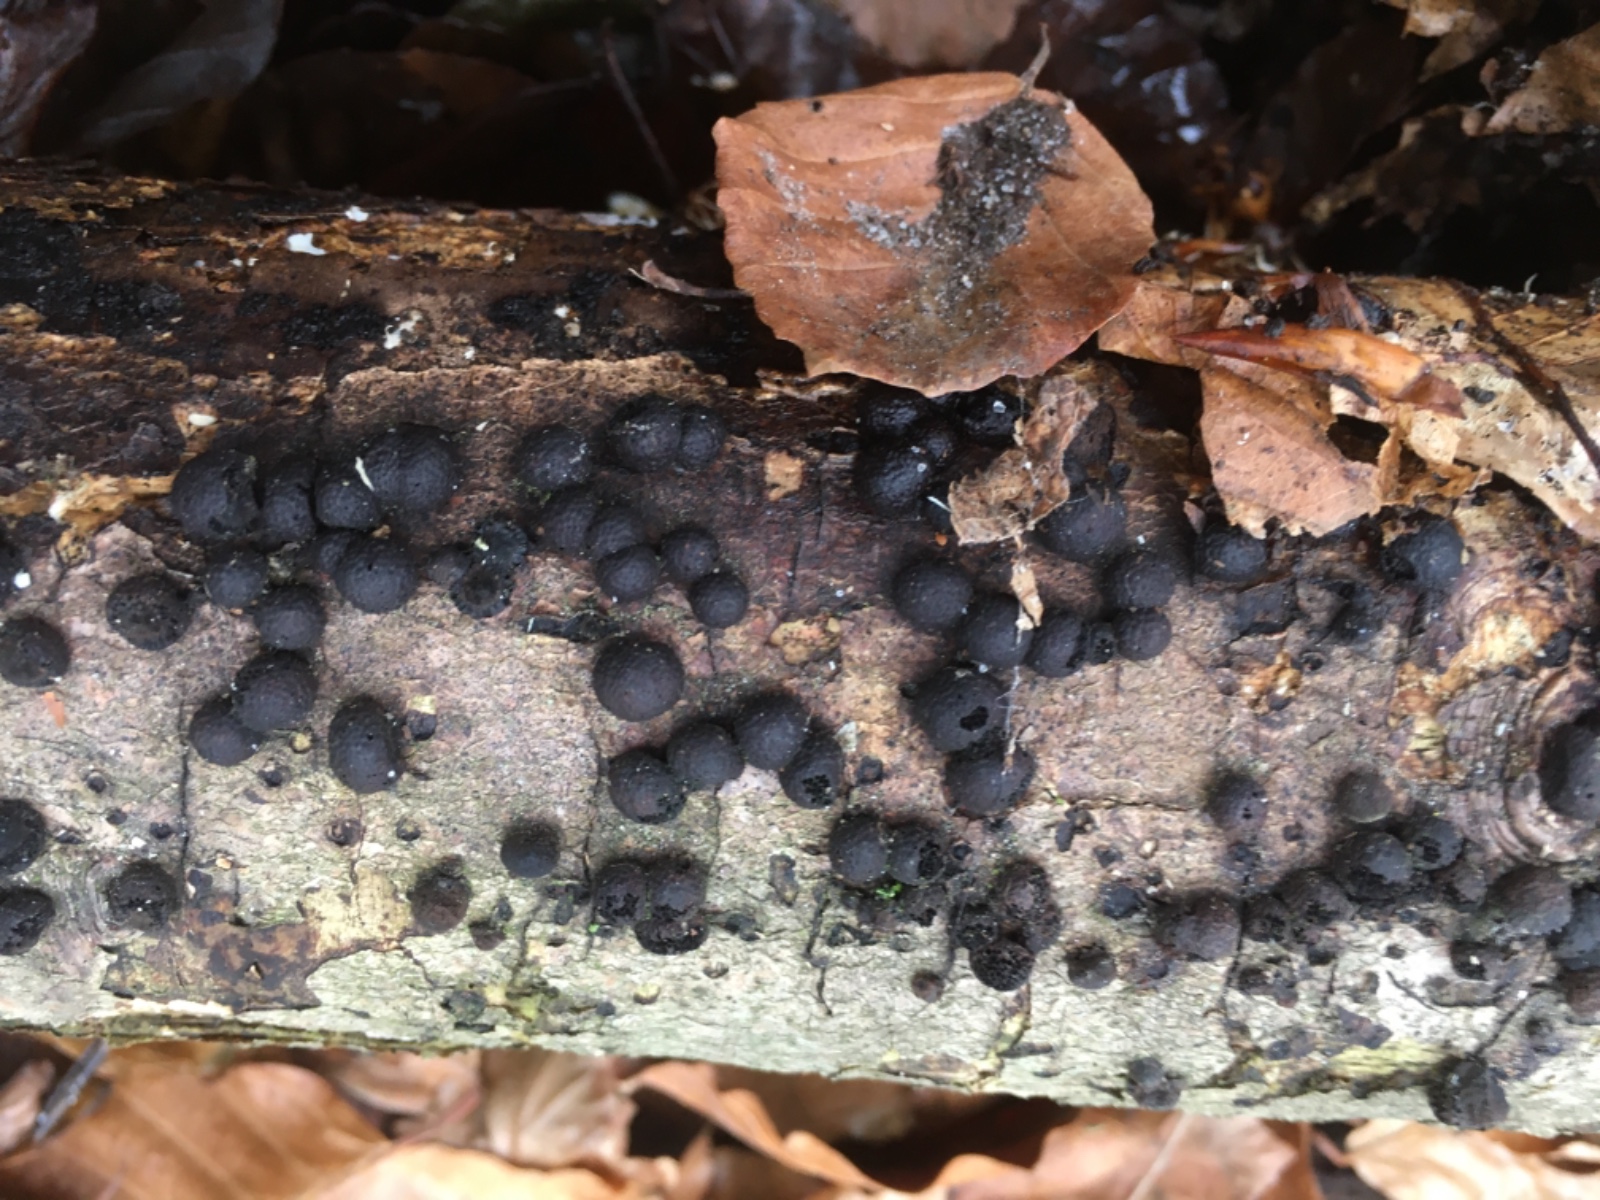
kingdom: Fungi
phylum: Ascomycota
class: Sordariomycetes
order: Xylariales
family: Hypoxylaceae
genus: Hypoxylon
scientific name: Hypoxylon fragiforme
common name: kuljordbær
